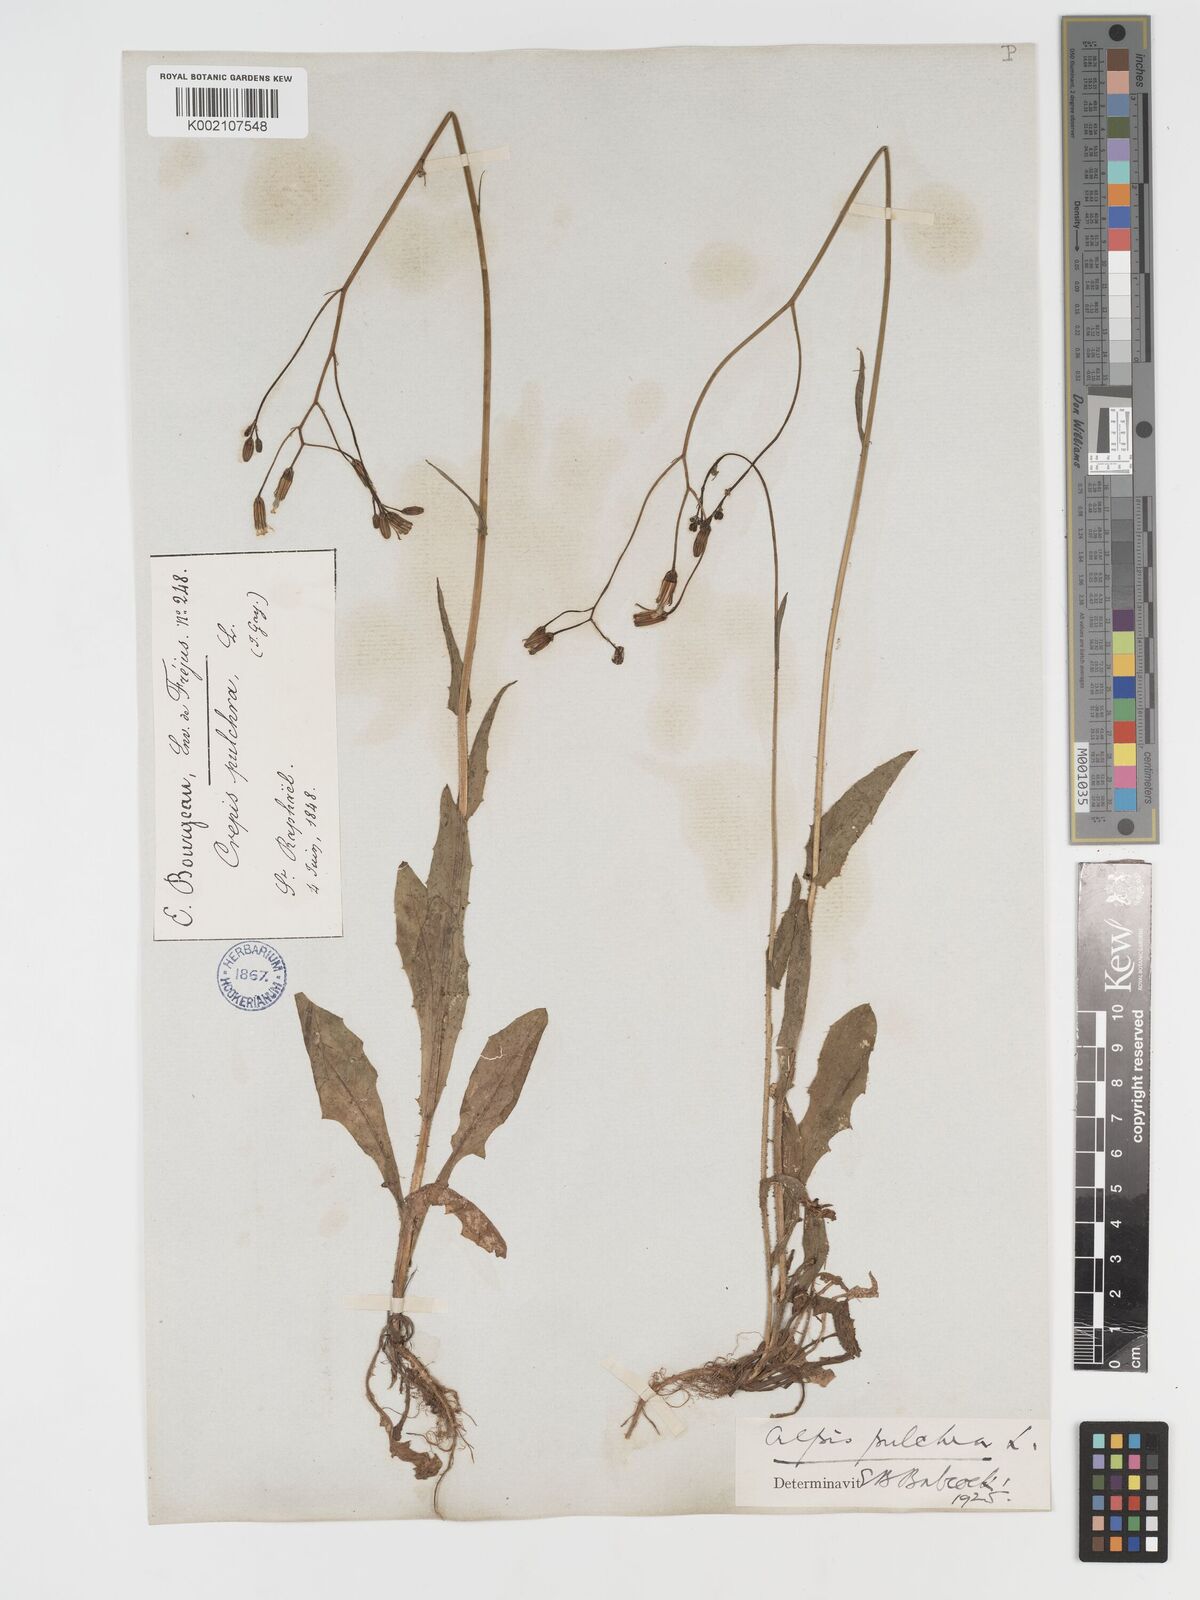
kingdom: Plantae
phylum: Tracheophyta
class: Magnoliopsida
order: Asterales
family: Asteraceae
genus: Crepis
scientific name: Crepis pulchra
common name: Hawk's-beard
